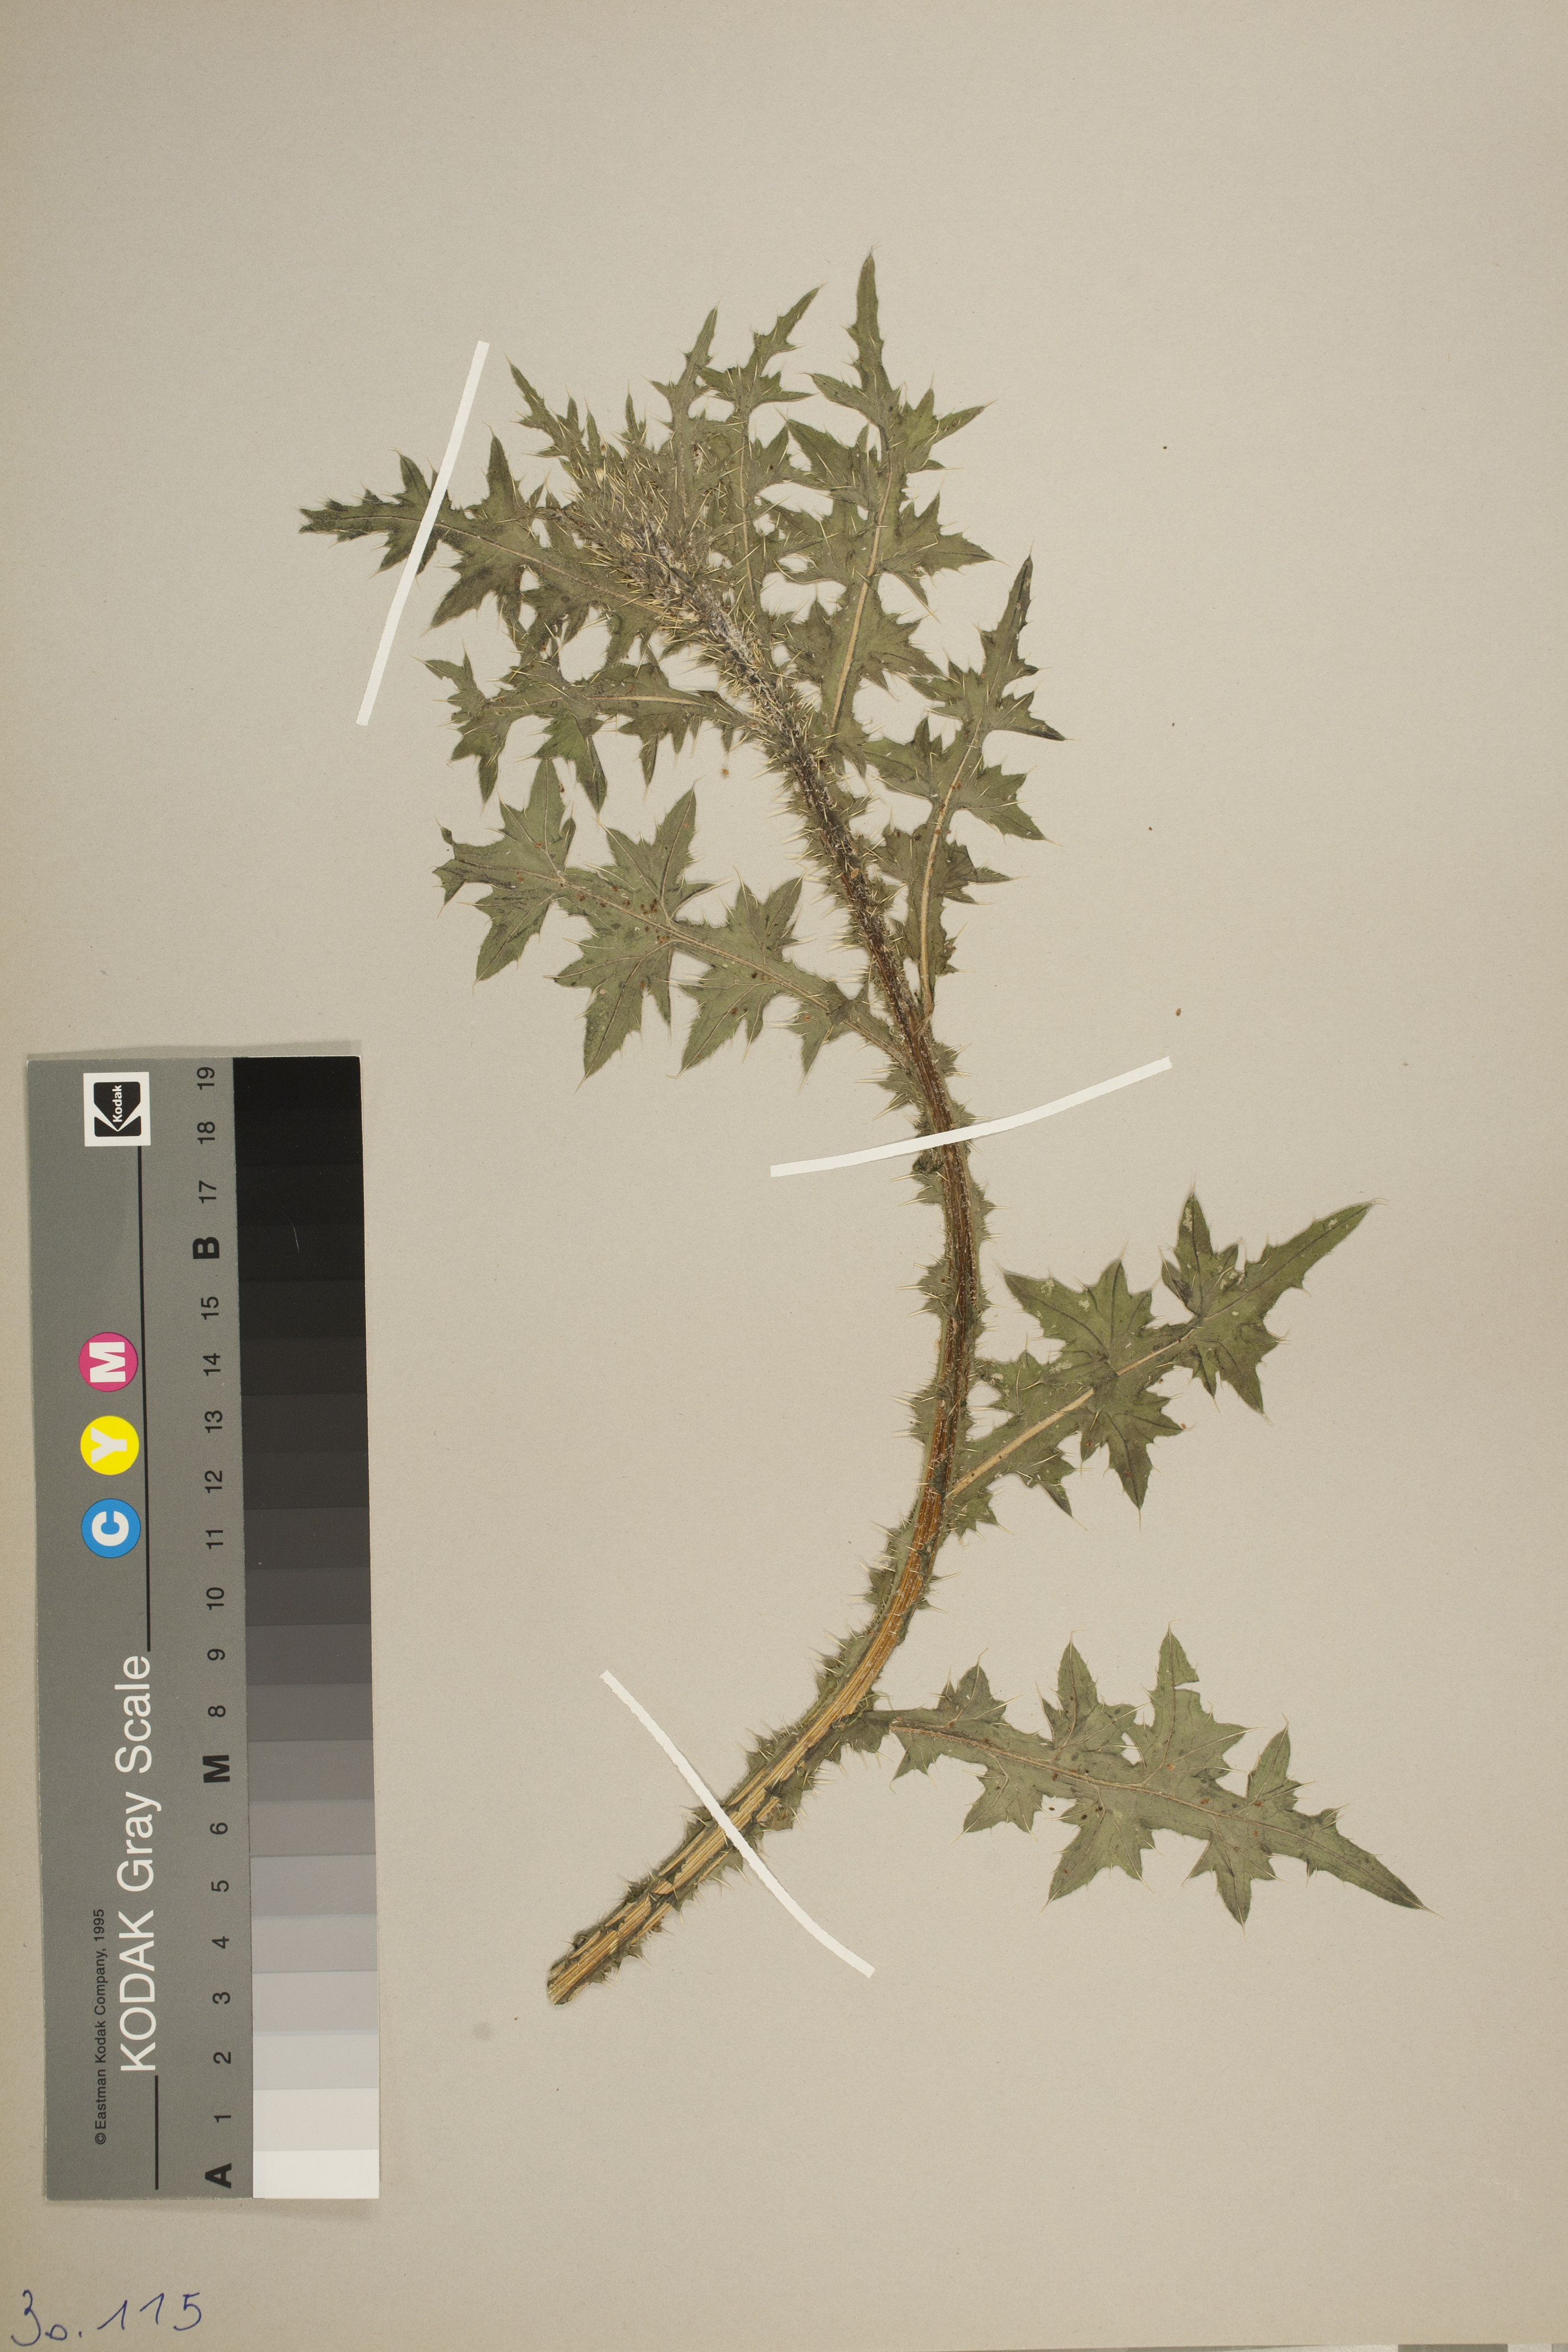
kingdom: Animalia
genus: Carduus
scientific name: Carduus
